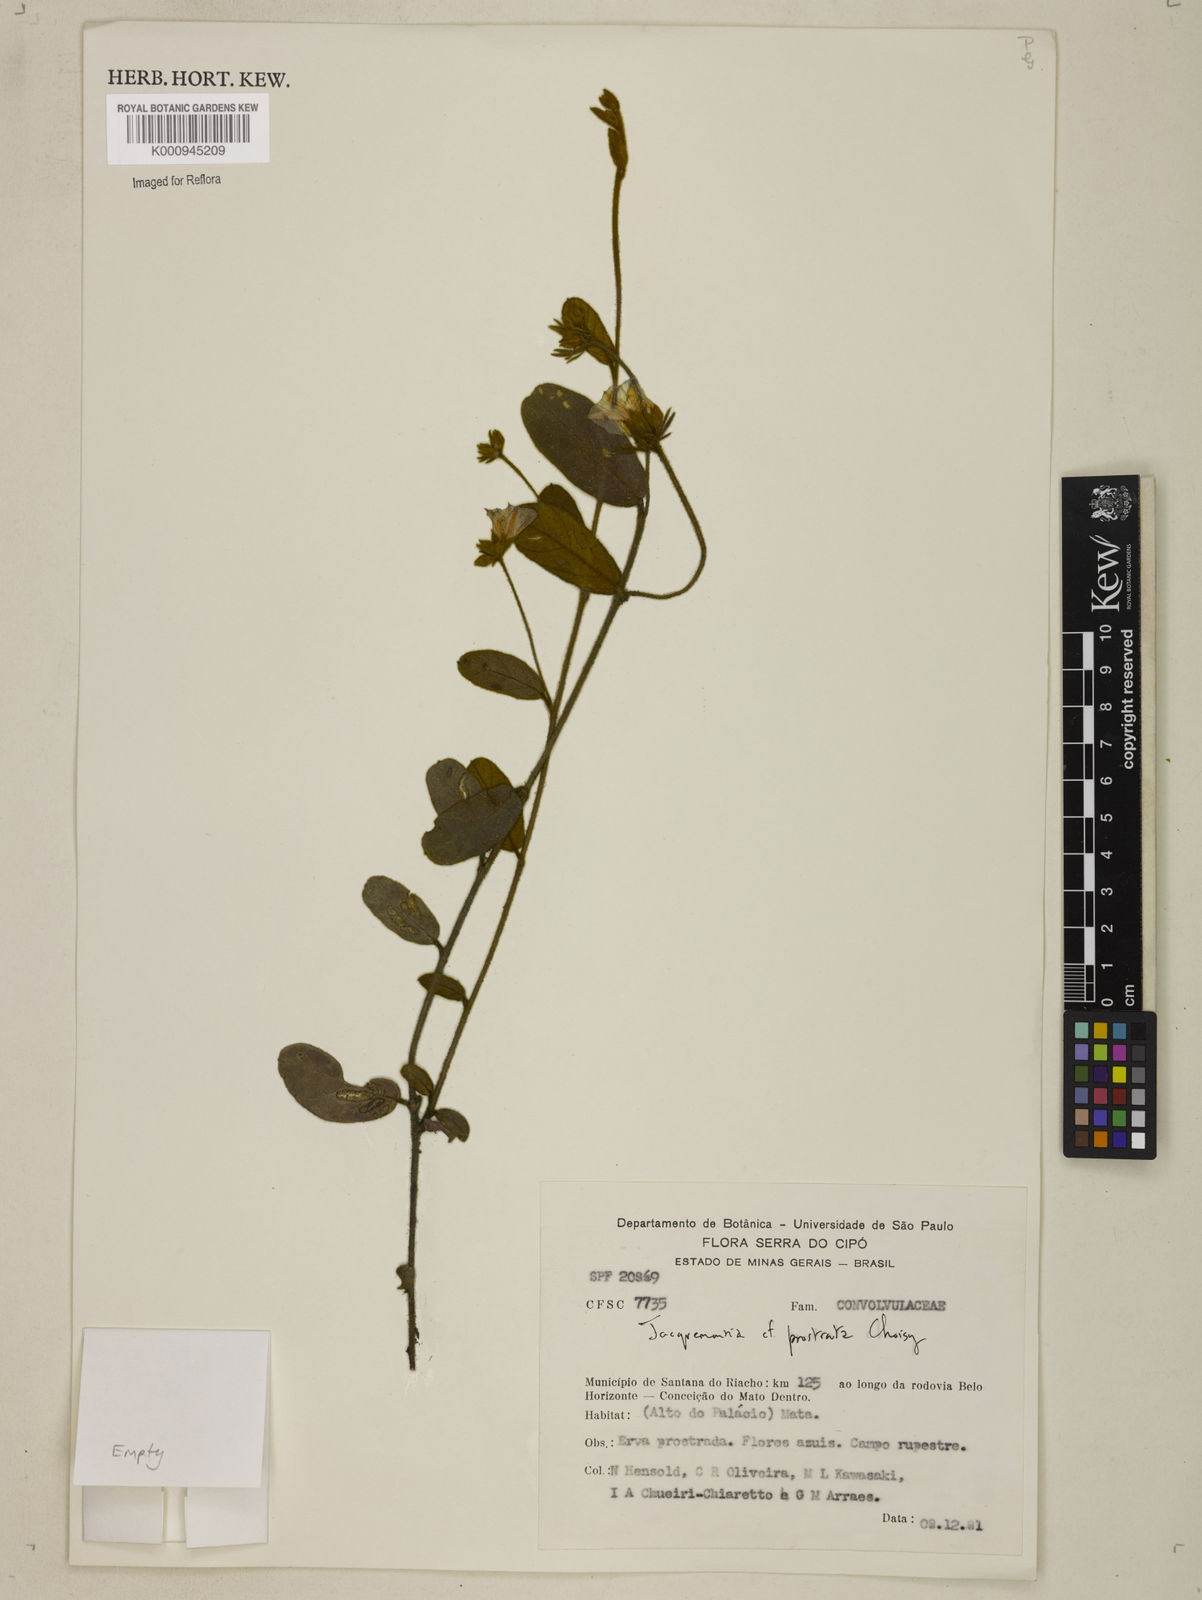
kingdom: Plantae
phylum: Tracheophyta
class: Magnoliopsida
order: Solanales
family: Convolvulaceae
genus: Jacquemontia
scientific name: Jacquemontia prostrata
